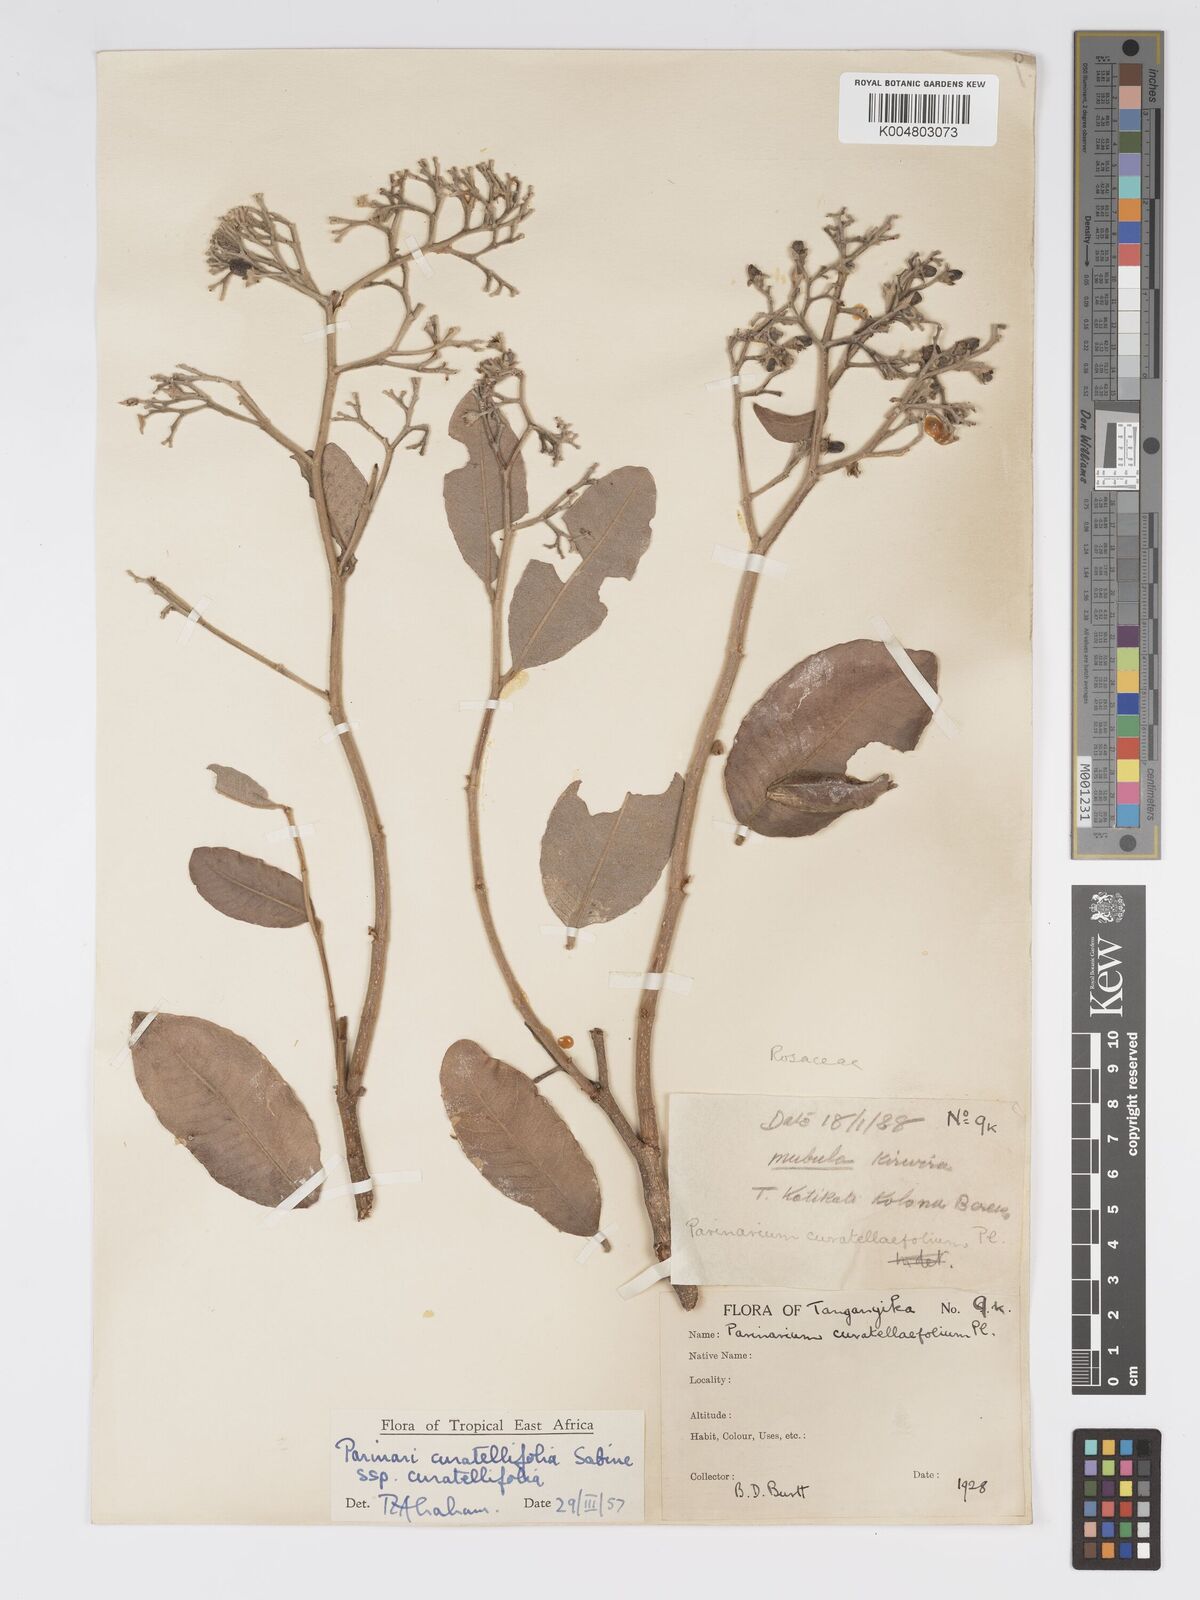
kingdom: Plantae
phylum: Tracheophyta
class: Magnoliopsida
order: Malpighiales
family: Chrysobalanaceae
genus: Parinari
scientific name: Parinari curatellifolia
